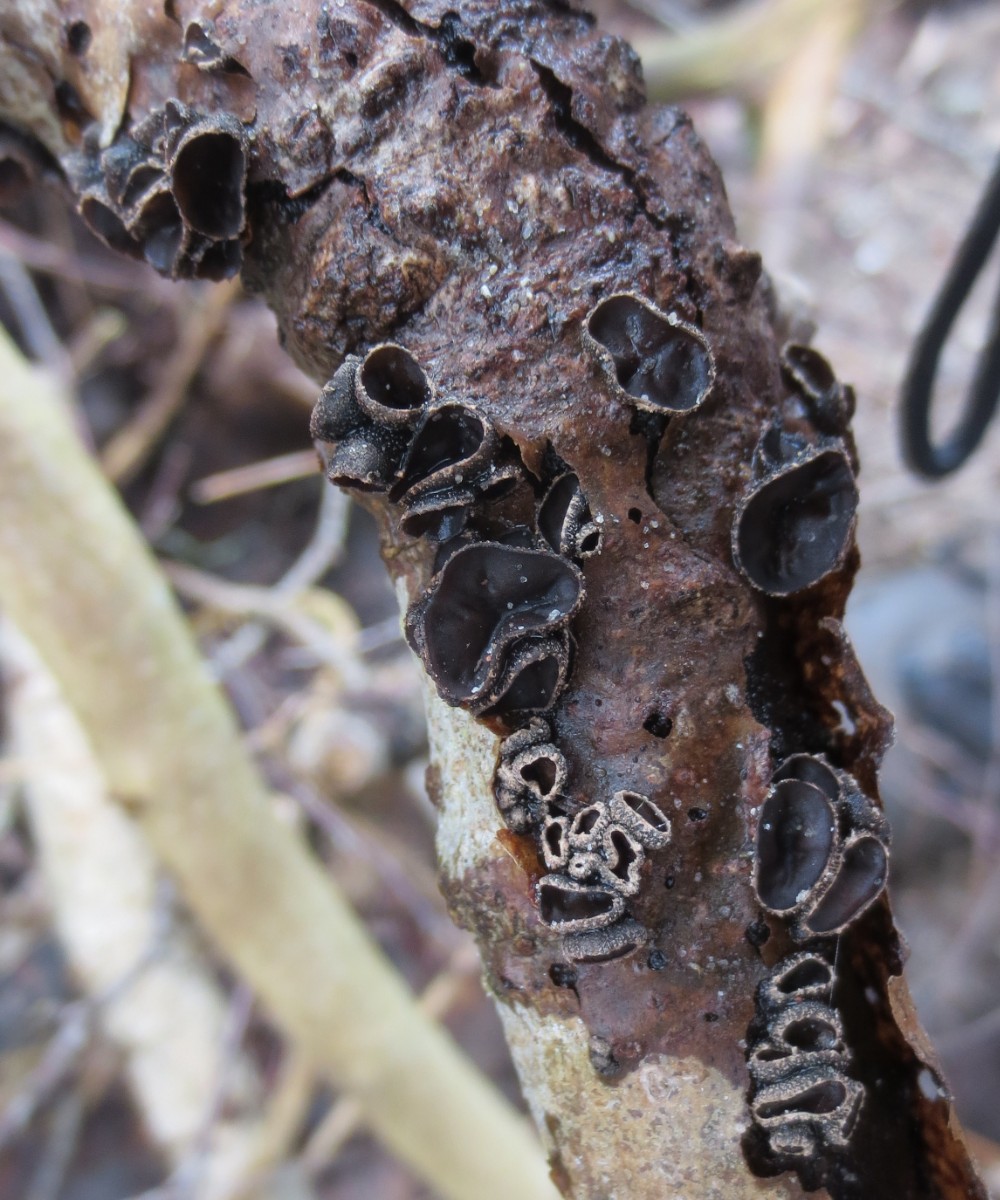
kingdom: Fungi
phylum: Ascomycota
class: Leotiomycetes
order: Helotiales
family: Sclerotiniaceae
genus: Sclerencoelia
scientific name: Sclerencoelia fascicularis
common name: poppel-læderskive
